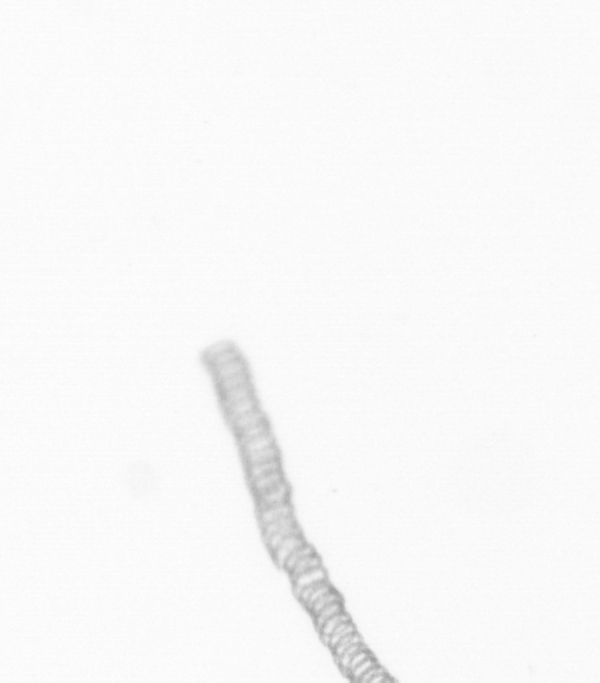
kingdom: Chromista
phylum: Ochrophyta
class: Bacillariophyceae
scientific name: Bacillariophyceae
